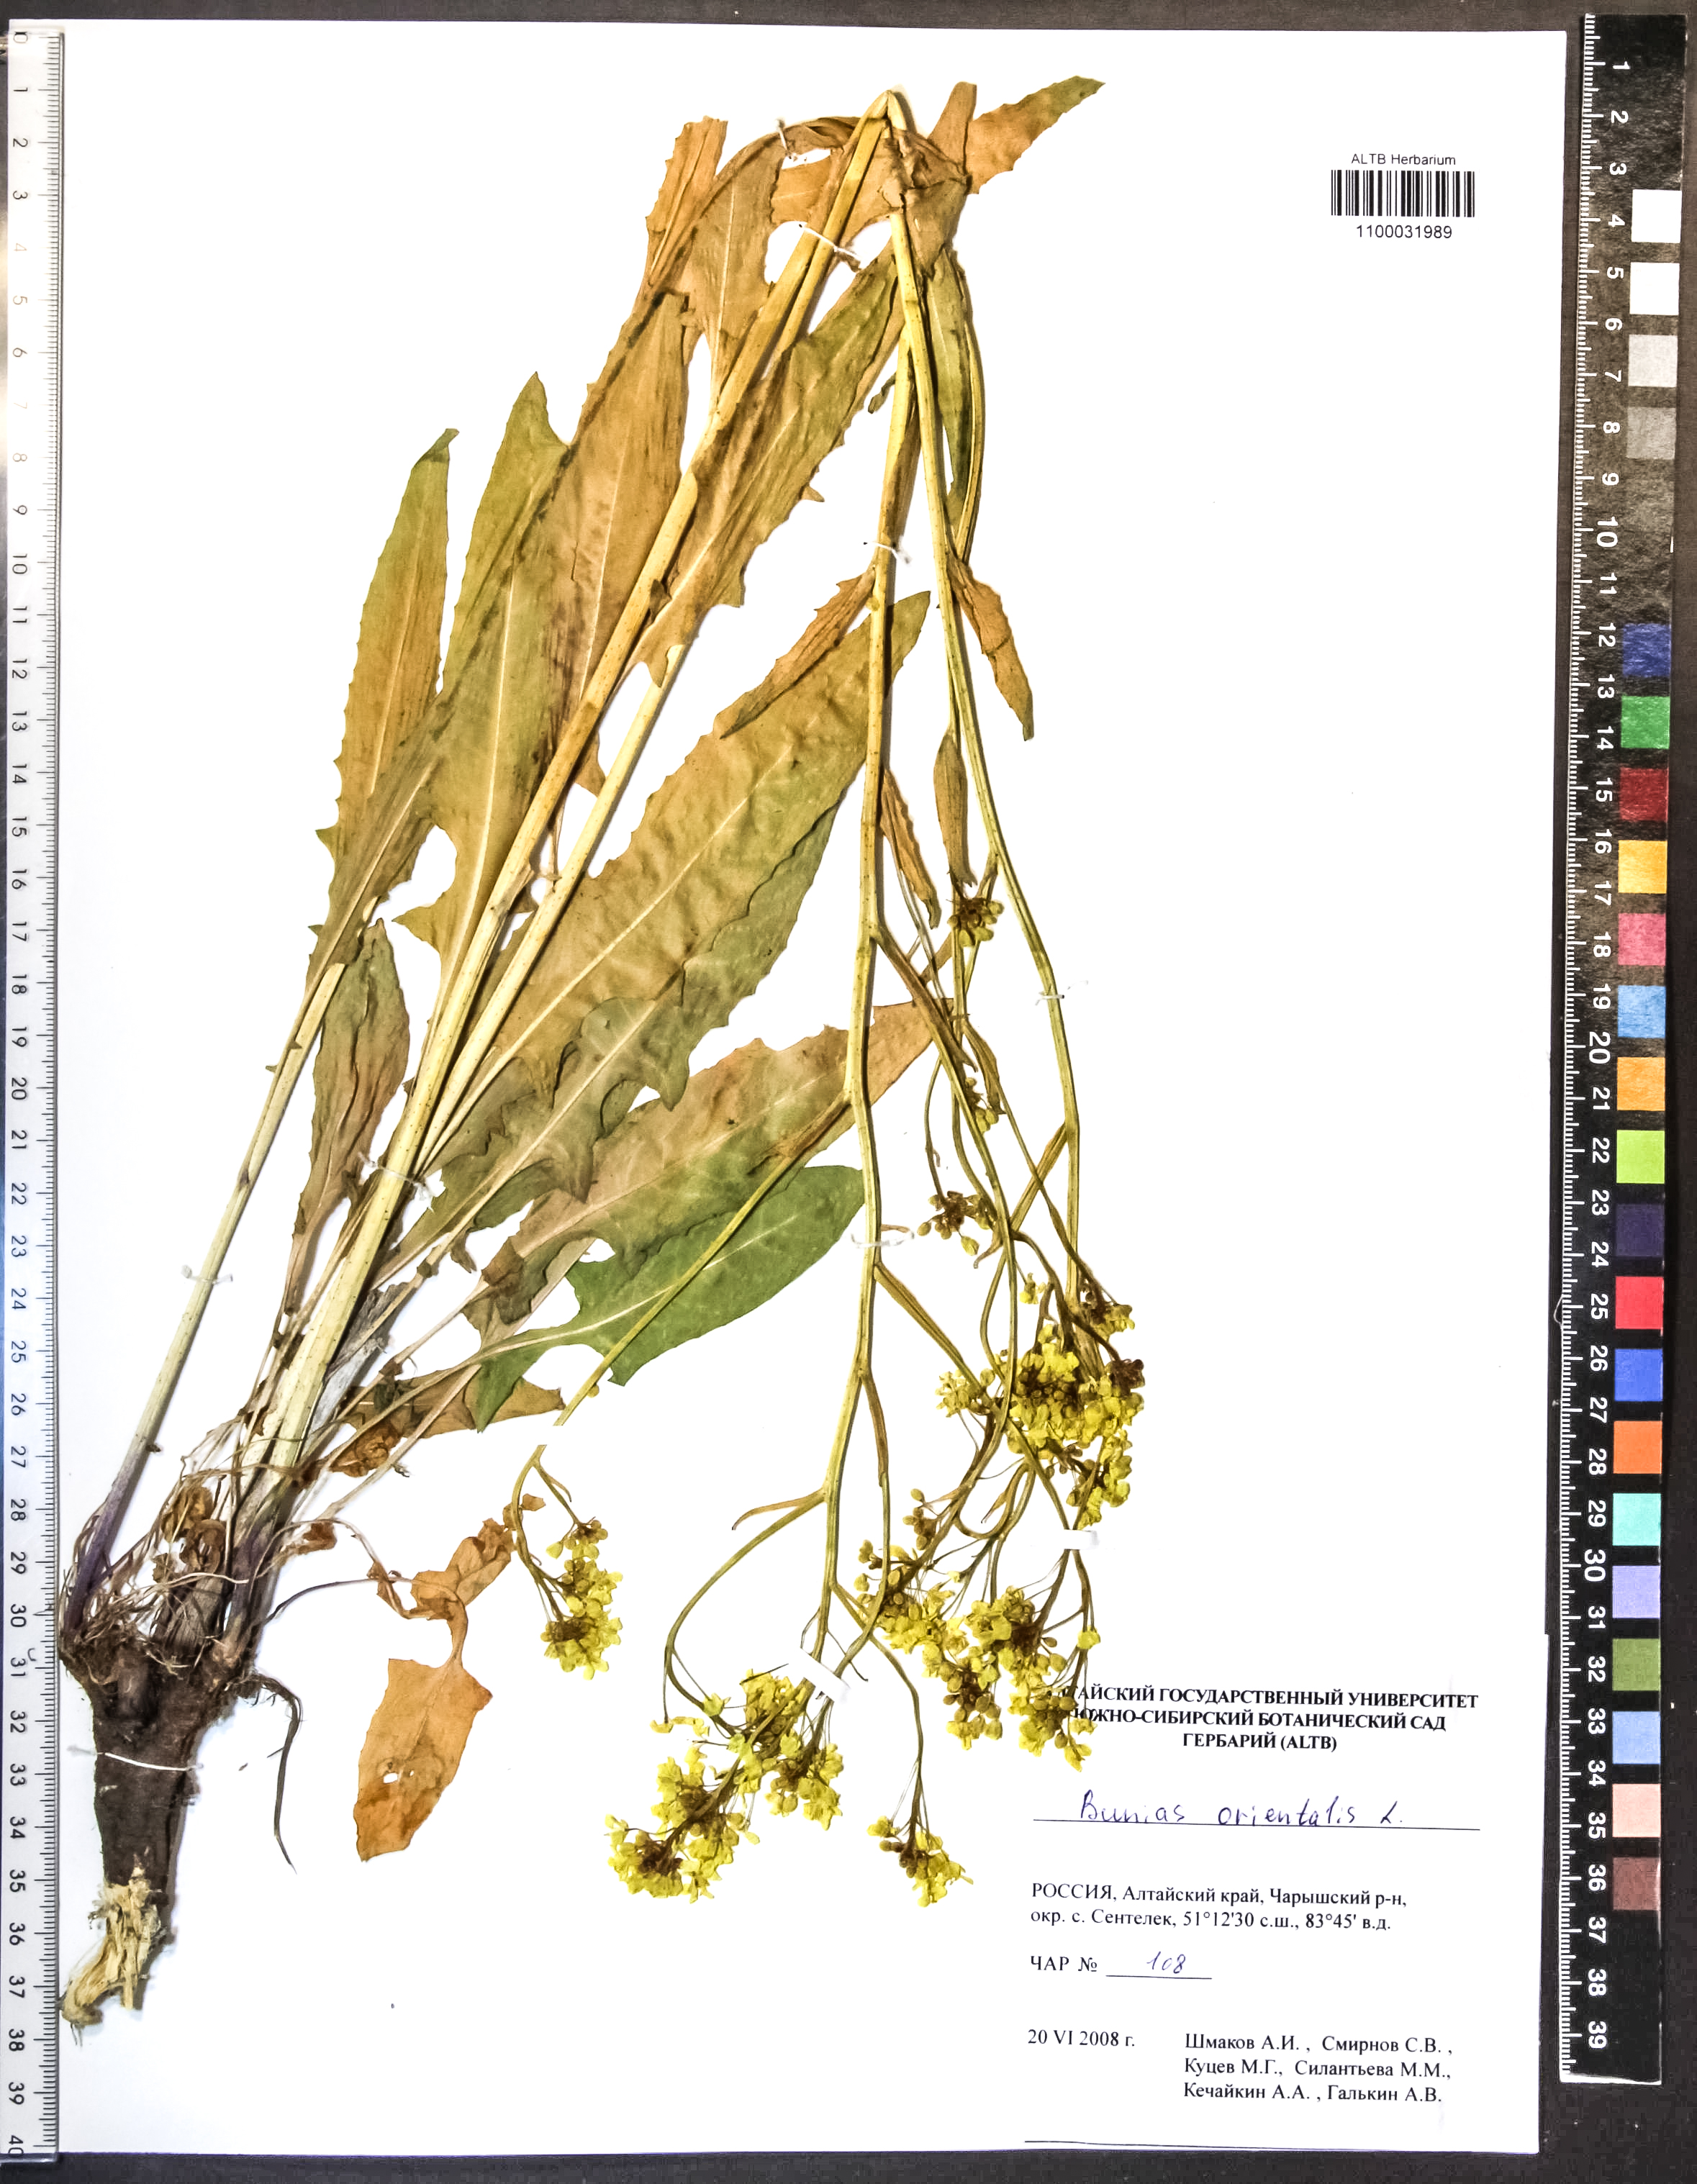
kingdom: Plantae
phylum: Tracheophyta
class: Magnoliopsida
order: Brassicales
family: Brassicaceae
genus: Bunias
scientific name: Bunias orientalis
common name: Warty-cabbage
